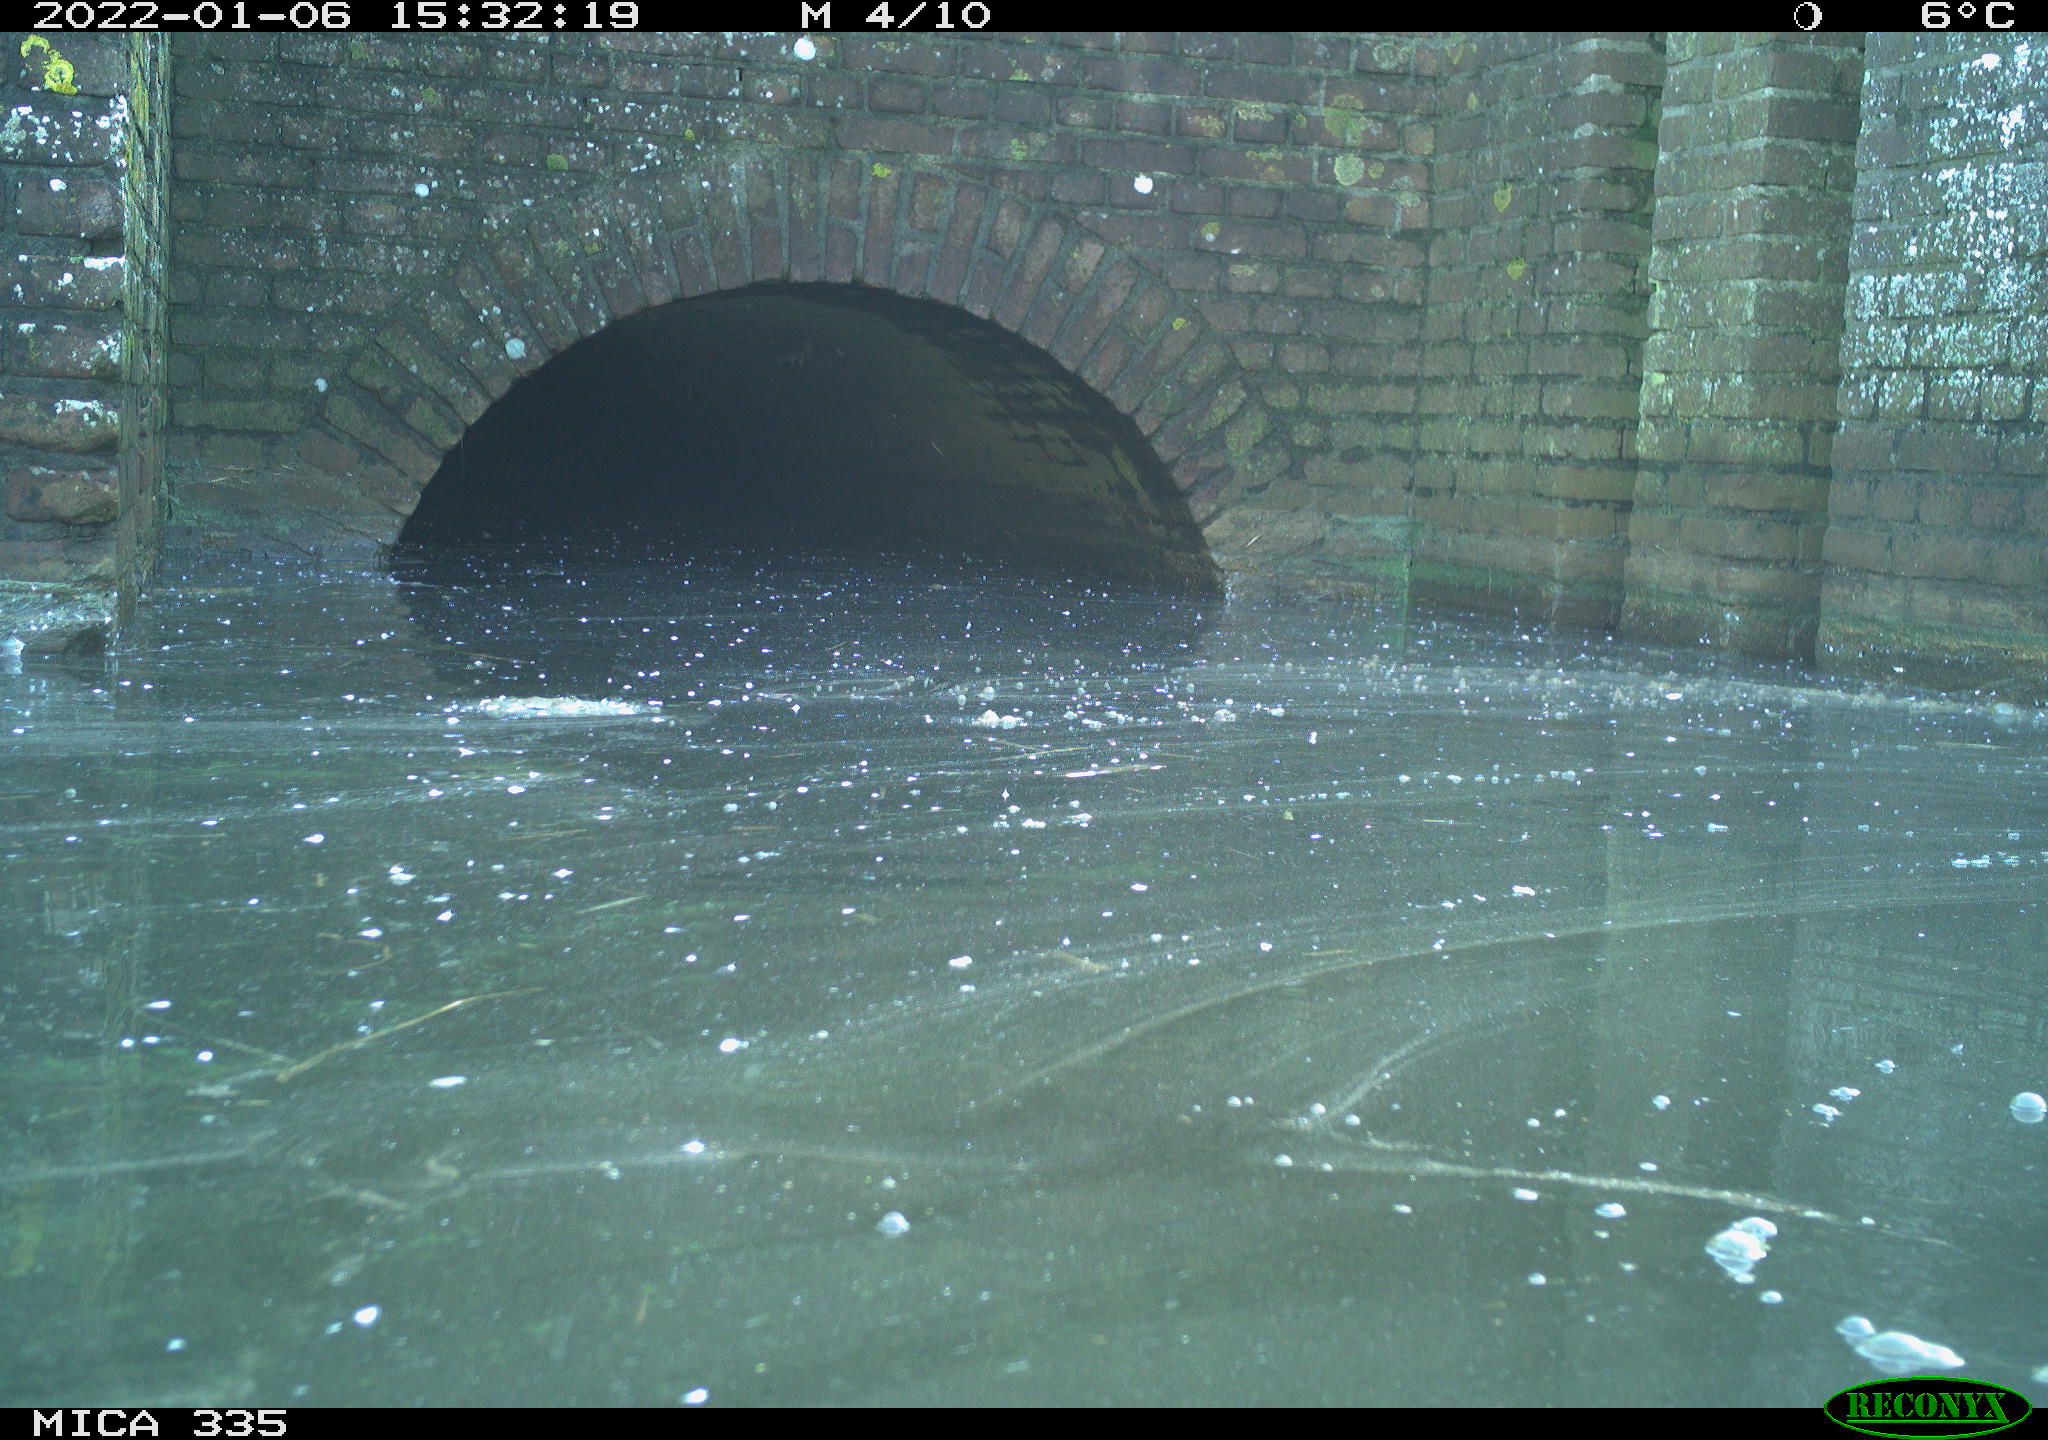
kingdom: Animalia
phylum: Chordata
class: Aves
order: Gruiformes
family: Rallidae
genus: Fulica
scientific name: Fulica atra
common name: Eurasian coot
